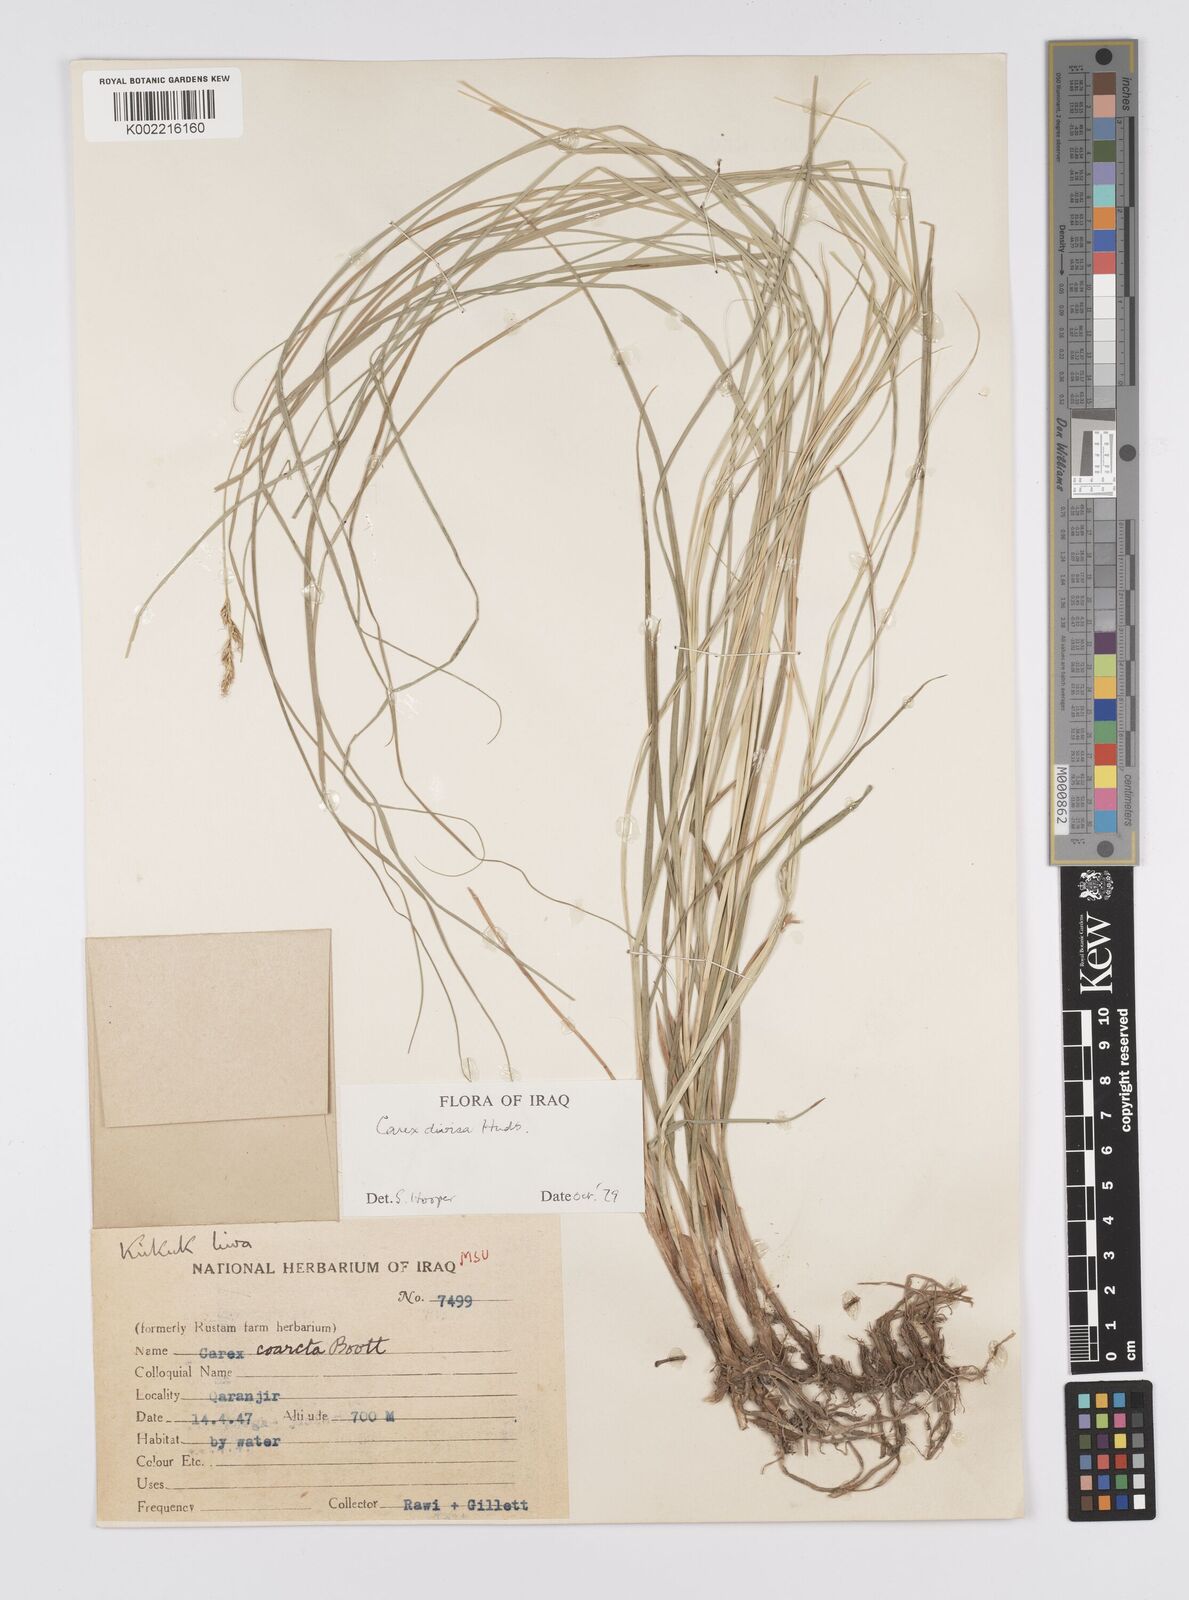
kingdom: Plantae
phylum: Tracheophyta
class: Liliopsida
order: Poales
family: Cyperaceae
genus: Carex
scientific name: Carex divisa
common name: Divided sedge
